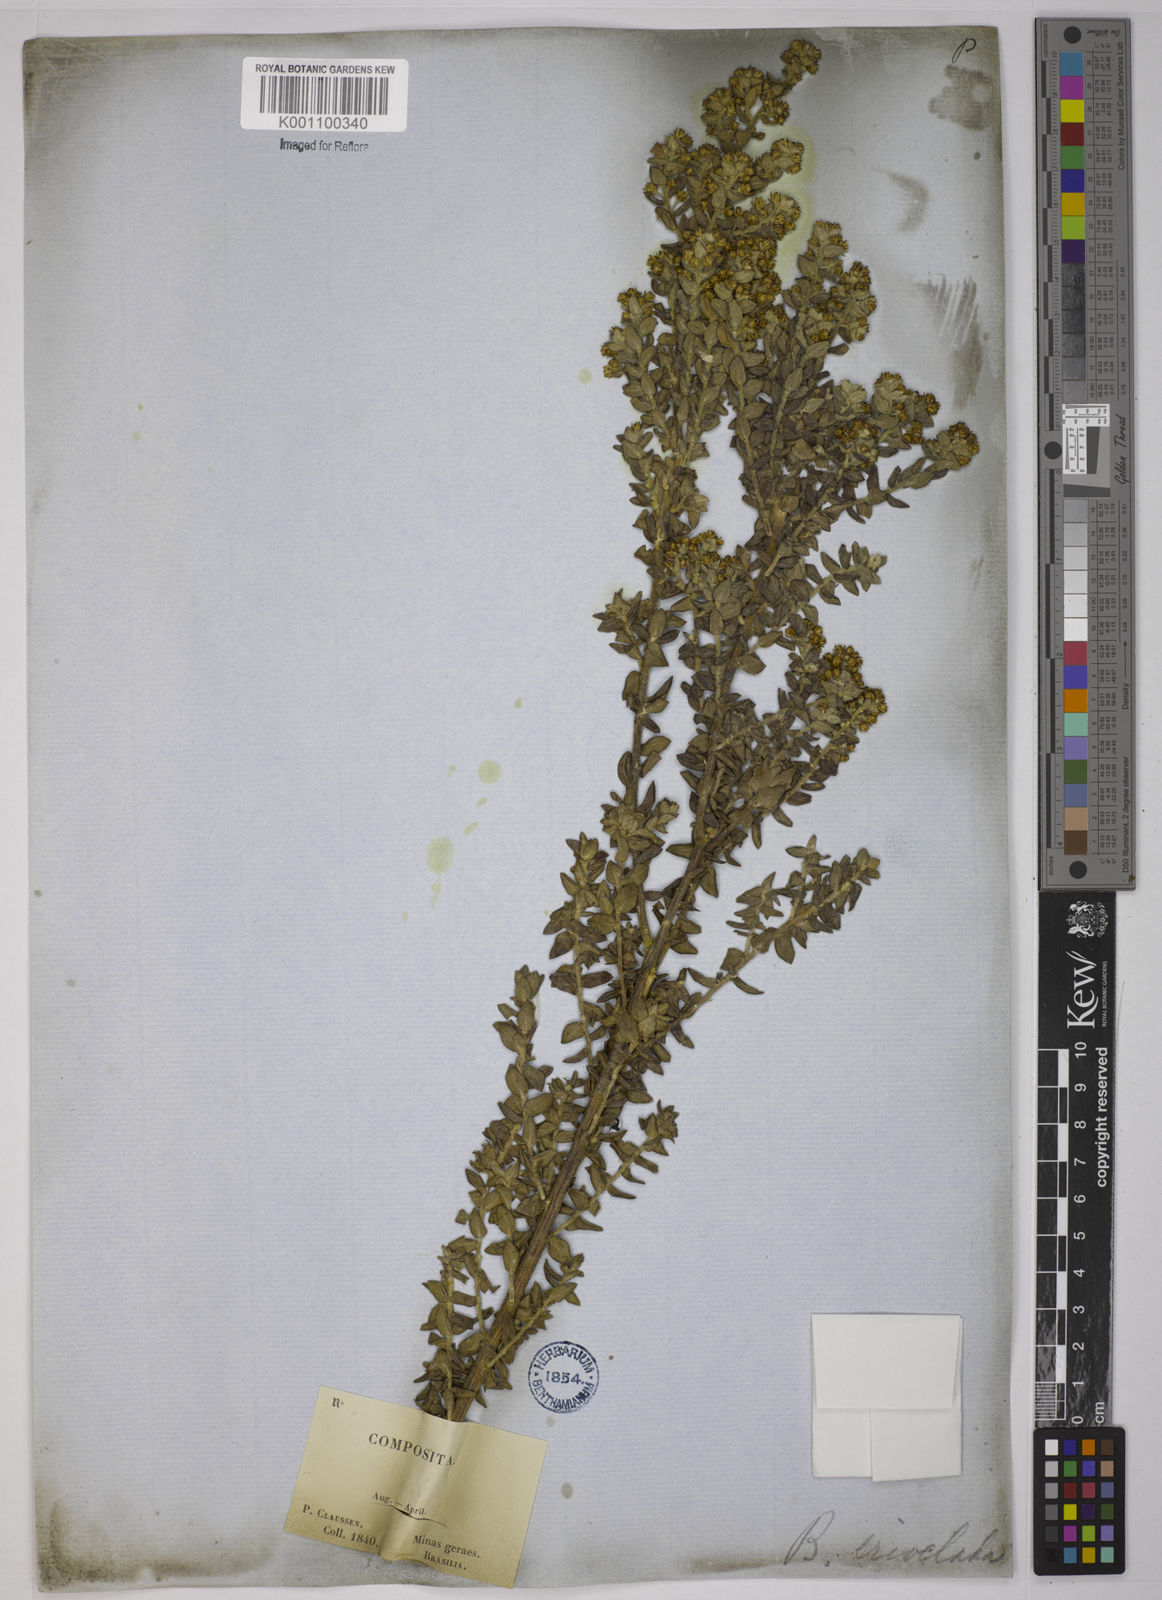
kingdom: Plantae
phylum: Tracheophyta
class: Magnoliopsida
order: Asterales
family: Asteraceae
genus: Baccharis
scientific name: Baccharis erioclada
